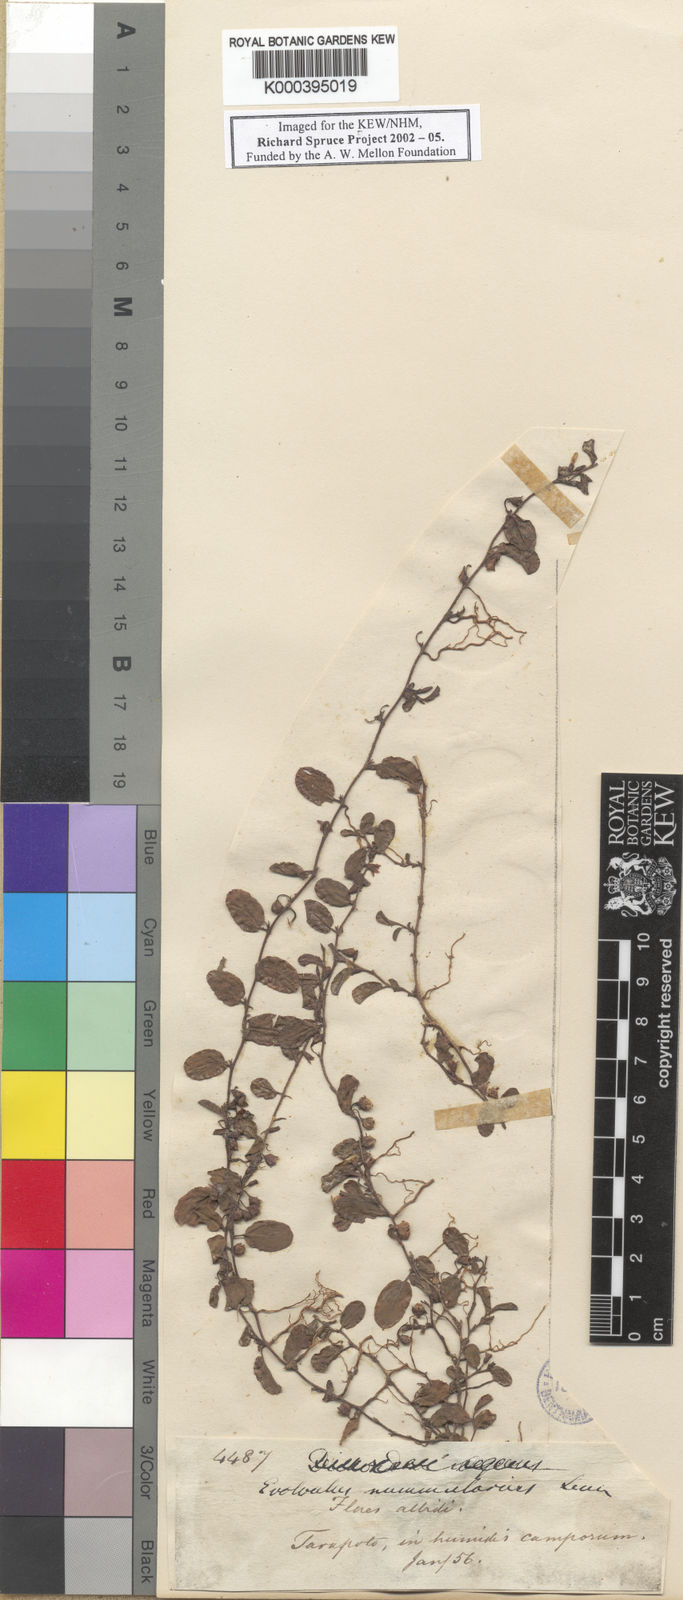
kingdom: Plantae
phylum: Tracheophyta
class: Magnoliopsida
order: Solanales
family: Convolvulaceae
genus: Evolvulus
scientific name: Evolvulus nummularius
